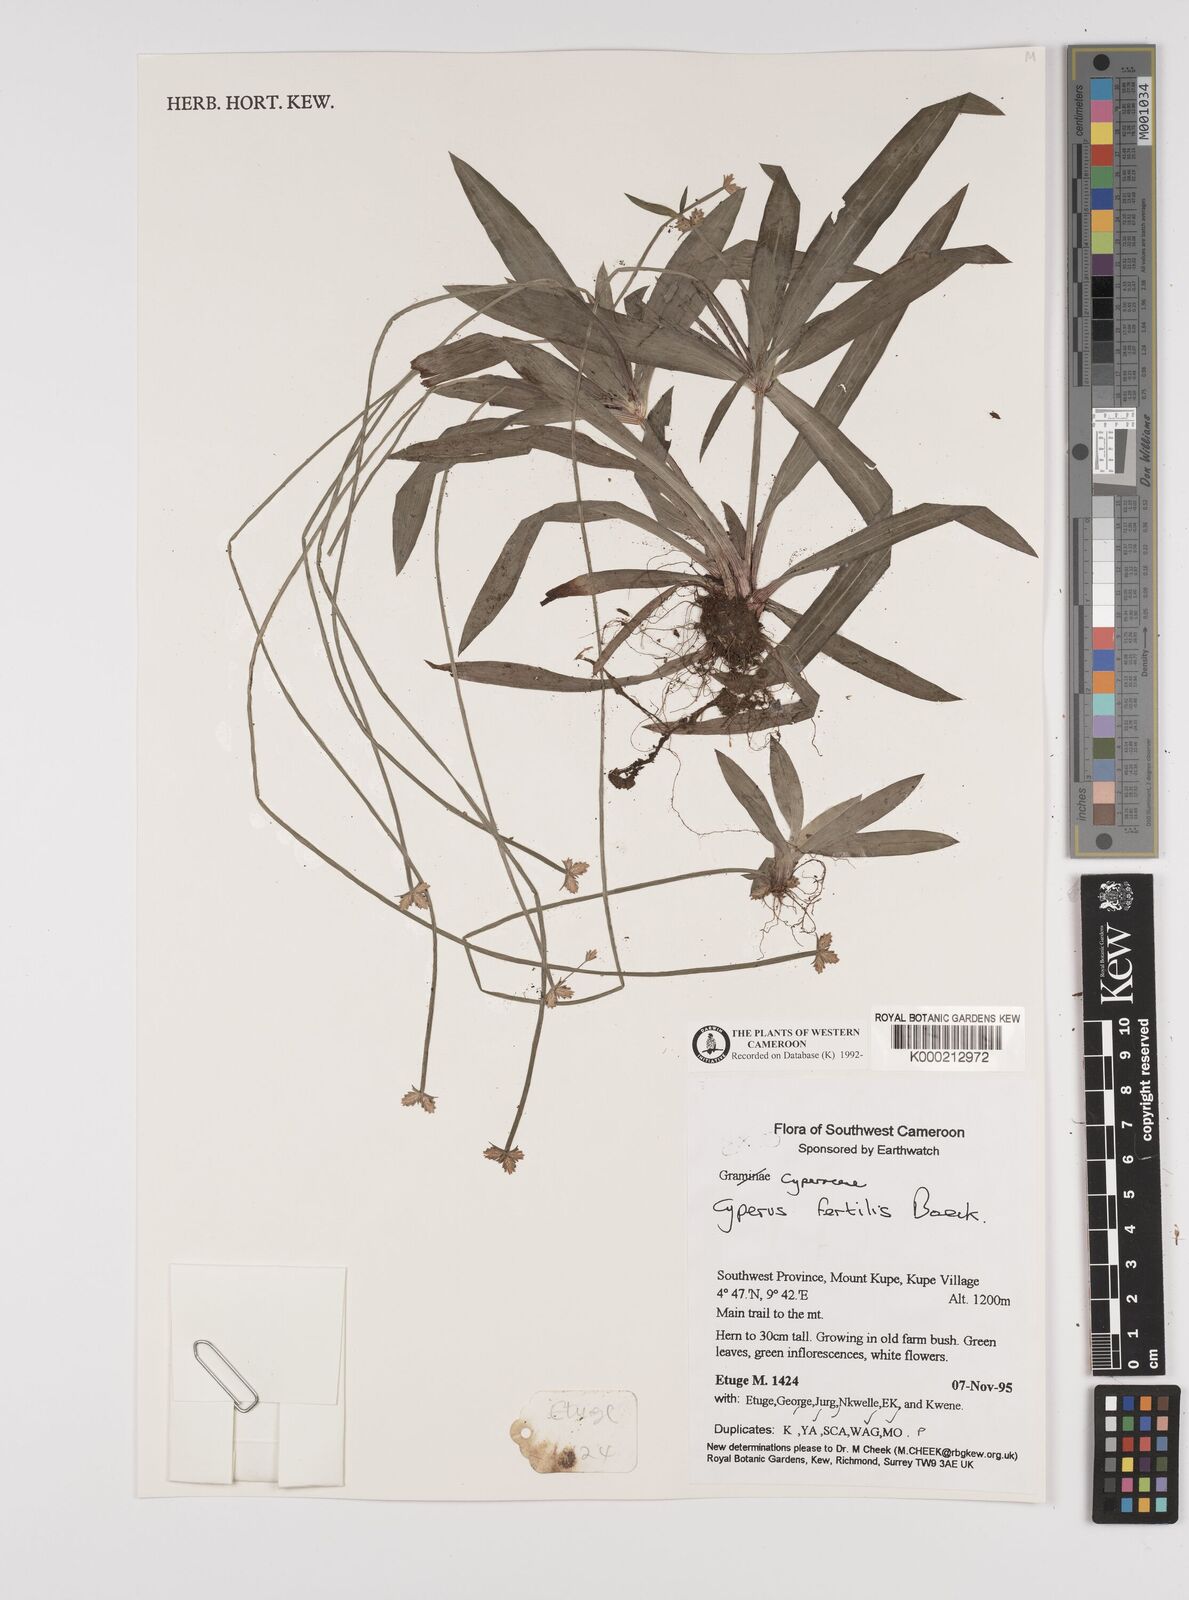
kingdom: Plantae
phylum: Tracheophyta
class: Liliopsida
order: Poales
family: Cyperaceae
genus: Cyperus
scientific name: Cyperus fertilis
